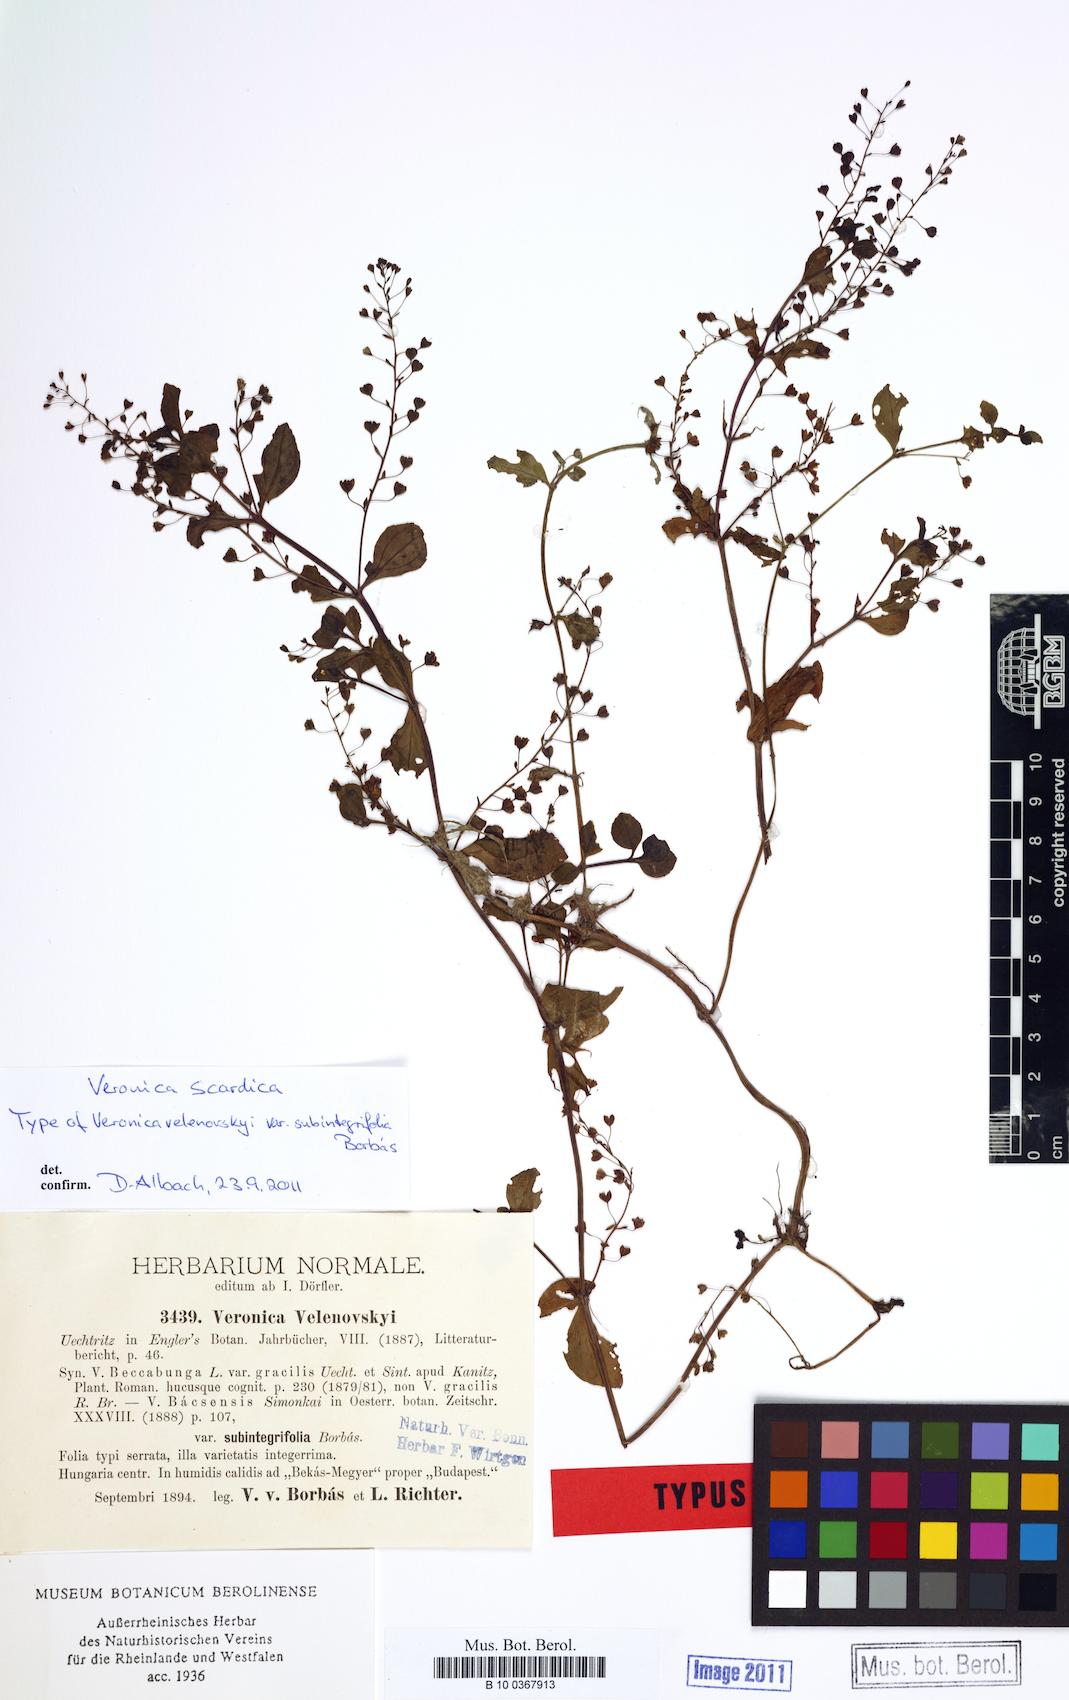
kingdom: Plantae
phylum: Tracheophyta
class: Magnoliopsida
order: Lamiales
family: Plantaginaceae
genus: Veronica
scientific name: Veronica scardica
